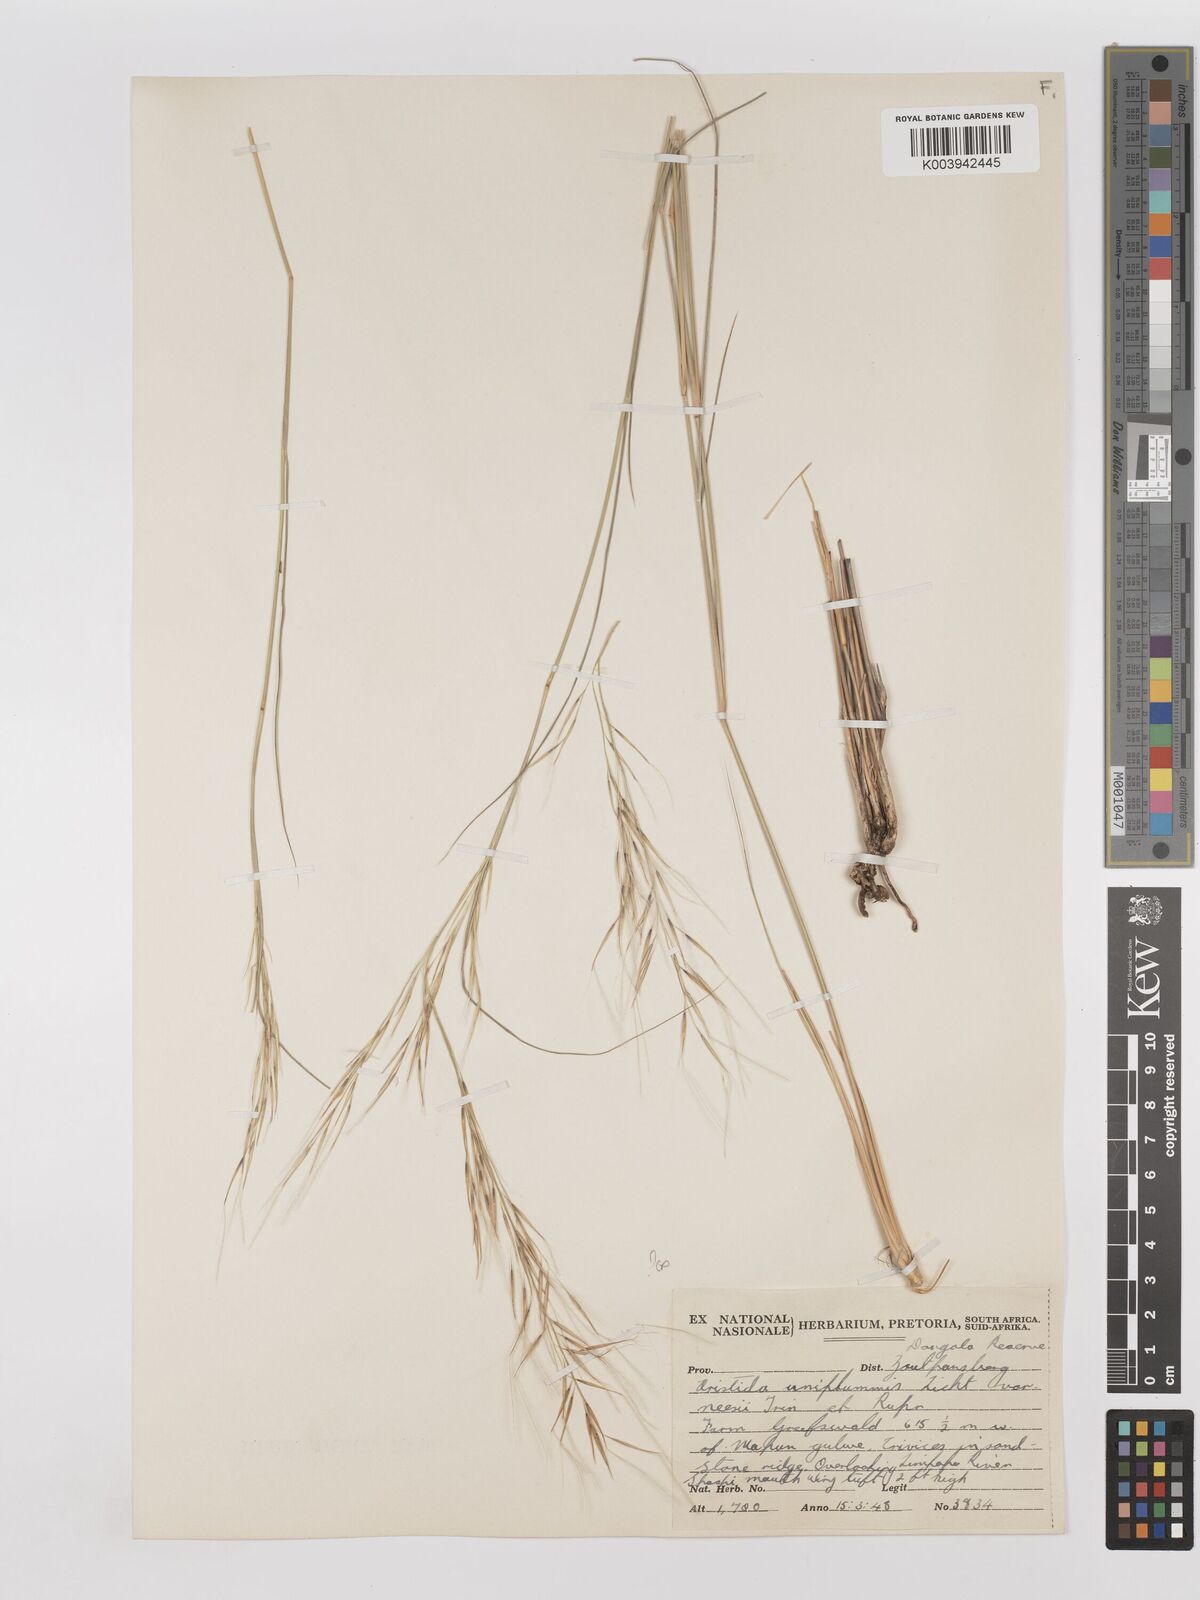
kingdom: Plantae
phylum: Tracheophyta
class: Liliopsida
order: Poales
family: Poaceae
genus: Stipagrostis
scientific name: Stipagrostis uniplumis
